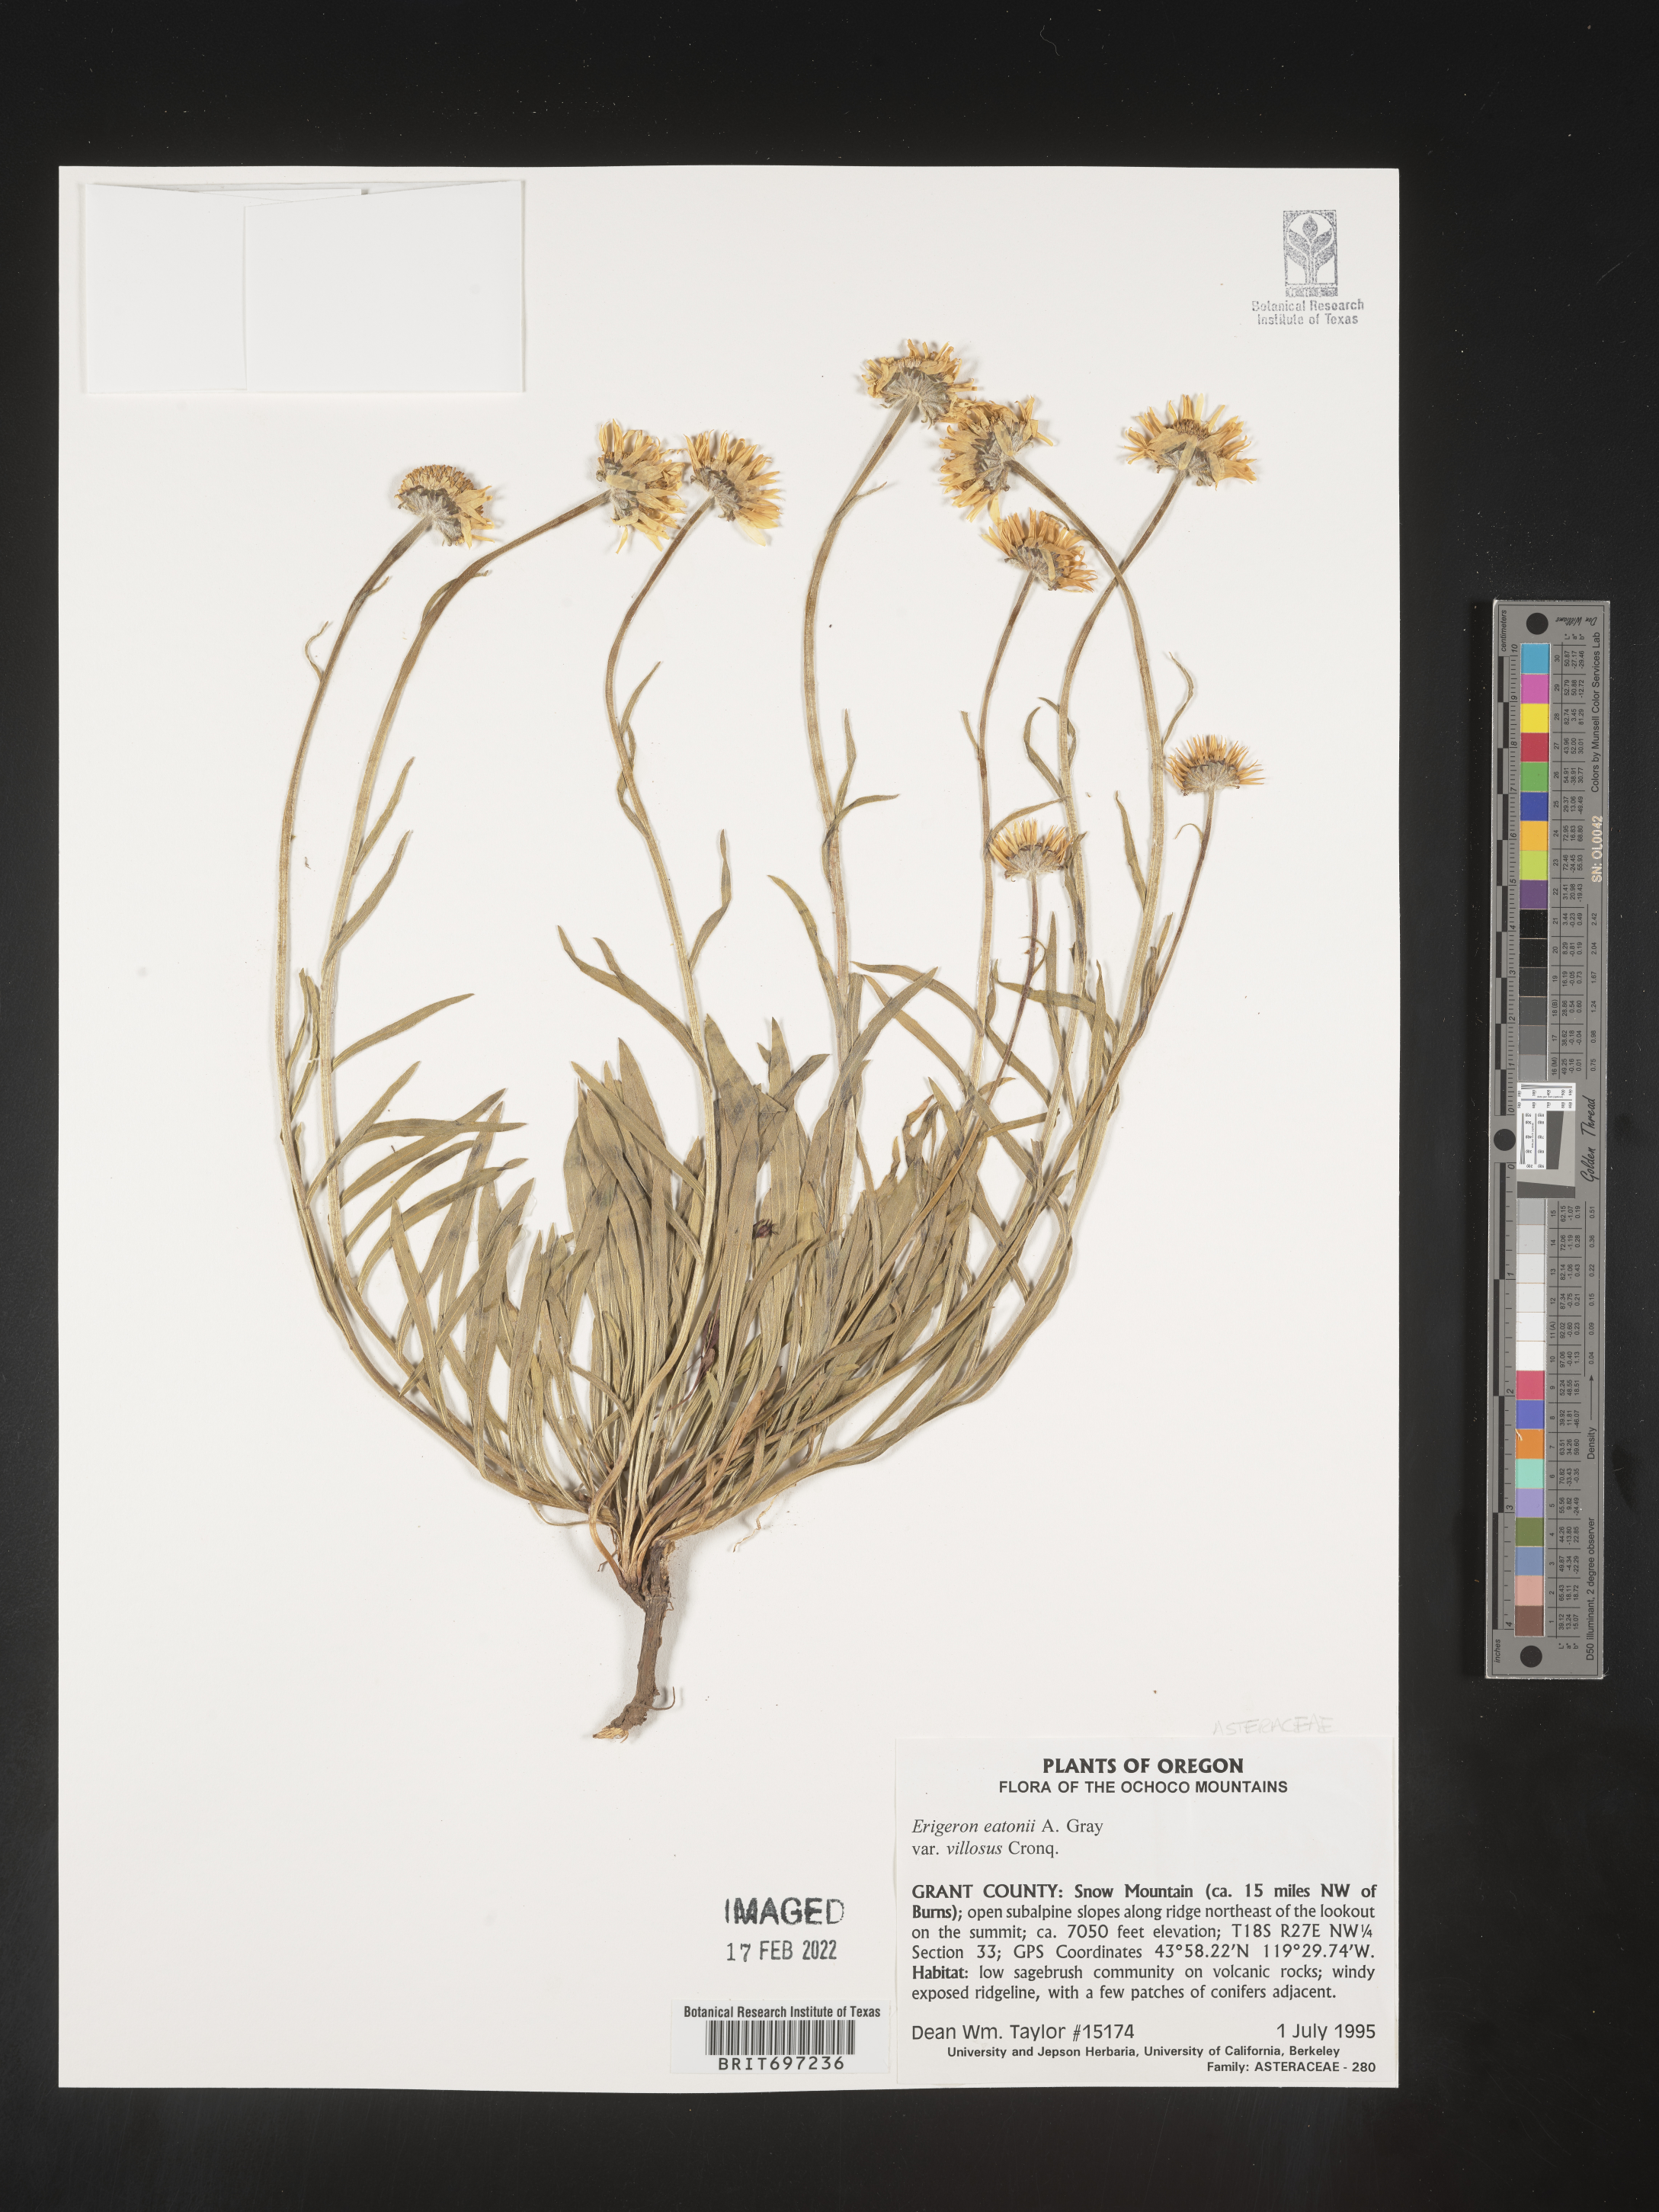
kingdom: Plantae
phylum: Tracheophyta
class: Magnoliopsida
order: Asterales
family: Asteraceae
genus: Erigeron
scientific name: Erigeron eatonii
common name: Eaton's fleabane
